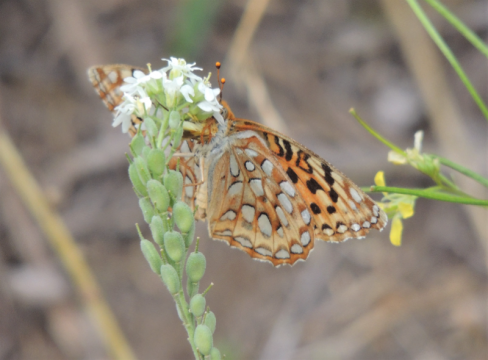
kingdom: Animalia
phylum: Arthropoda
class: Insecta
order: Lepidoptera
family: Nymphalidae
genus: Speyeria
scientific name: Speyeria coronis
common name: Coronis Fritillary
